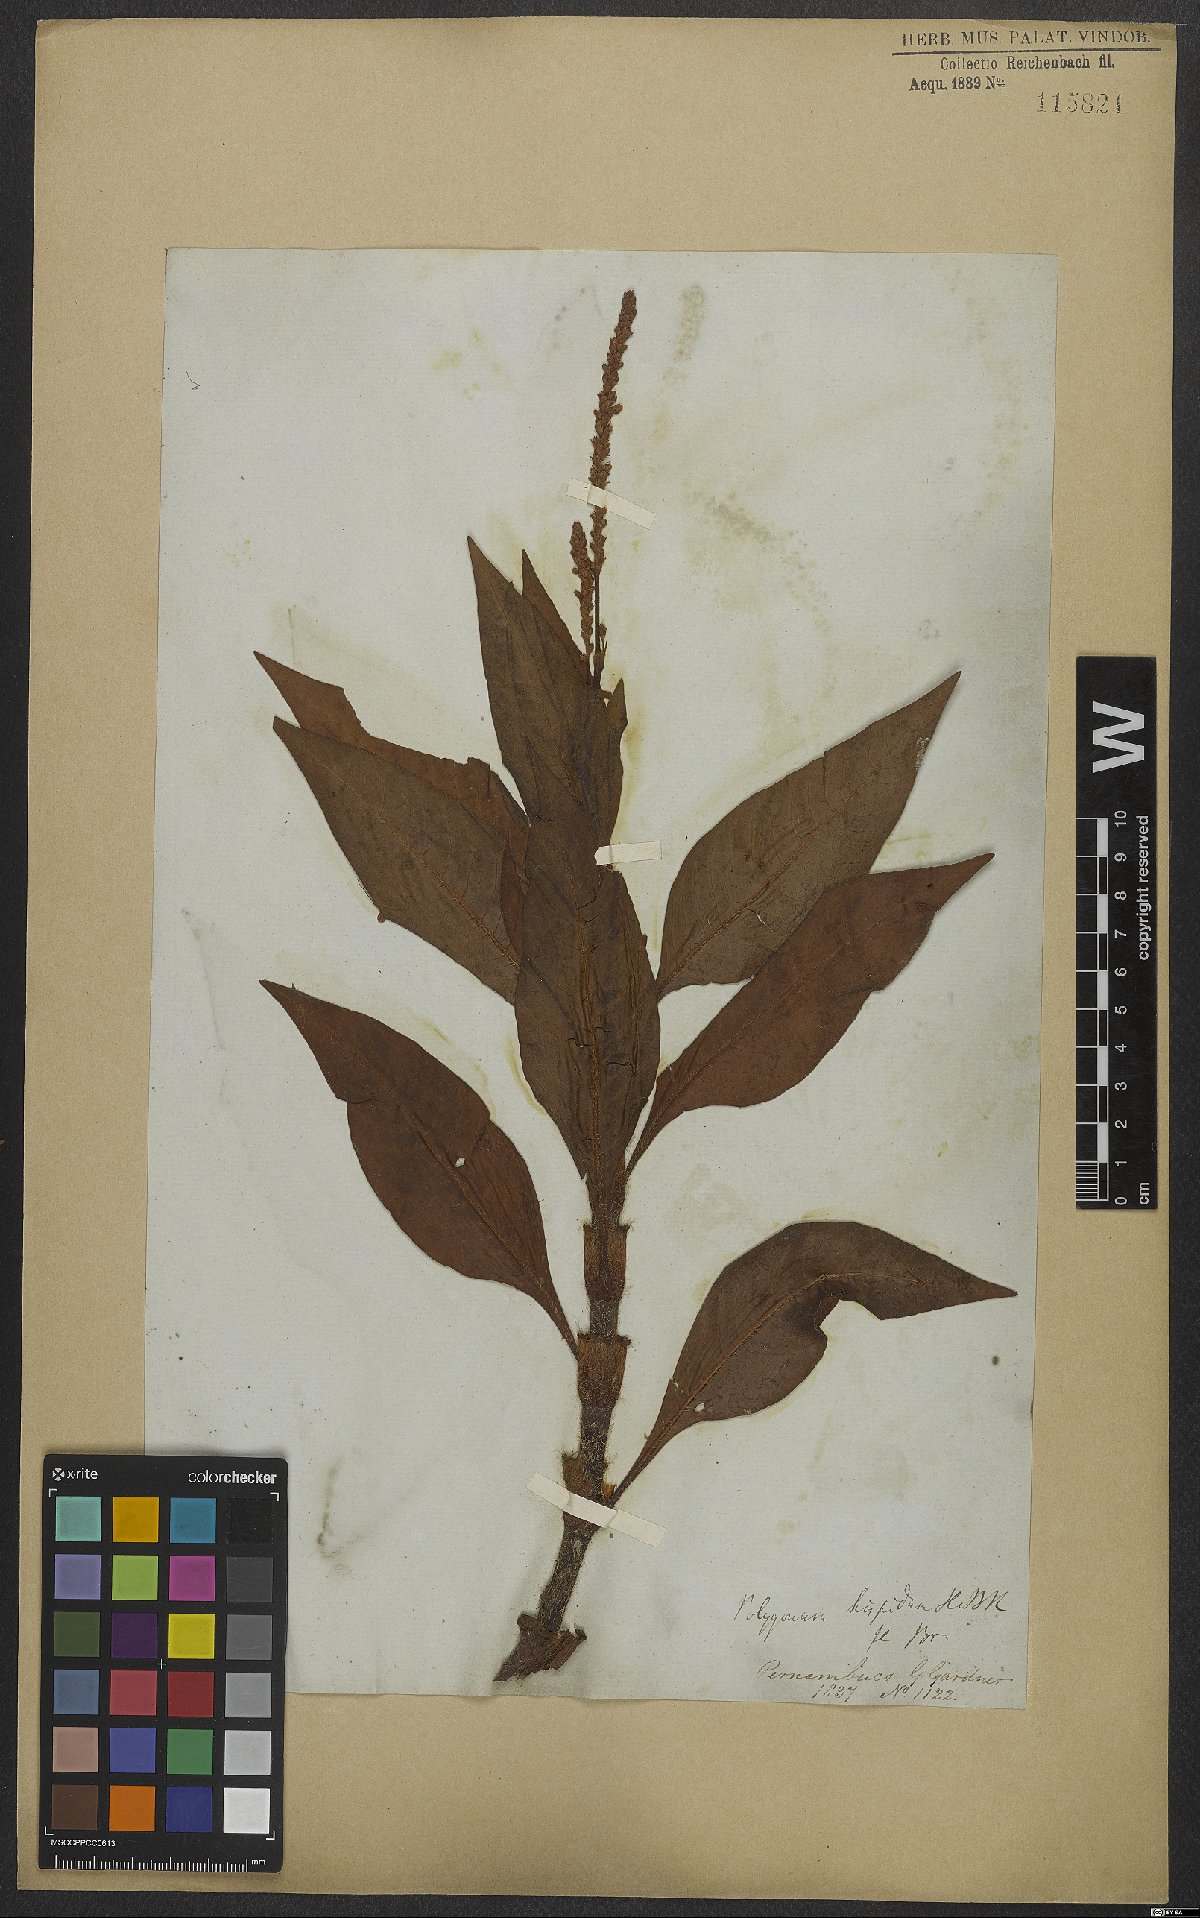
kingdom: Plantae
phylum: Tracheophyta
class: Magnoliopsida
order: Caryophyllales
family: Polygonaceae
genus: Persicaria
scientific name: Persicaria hispida
